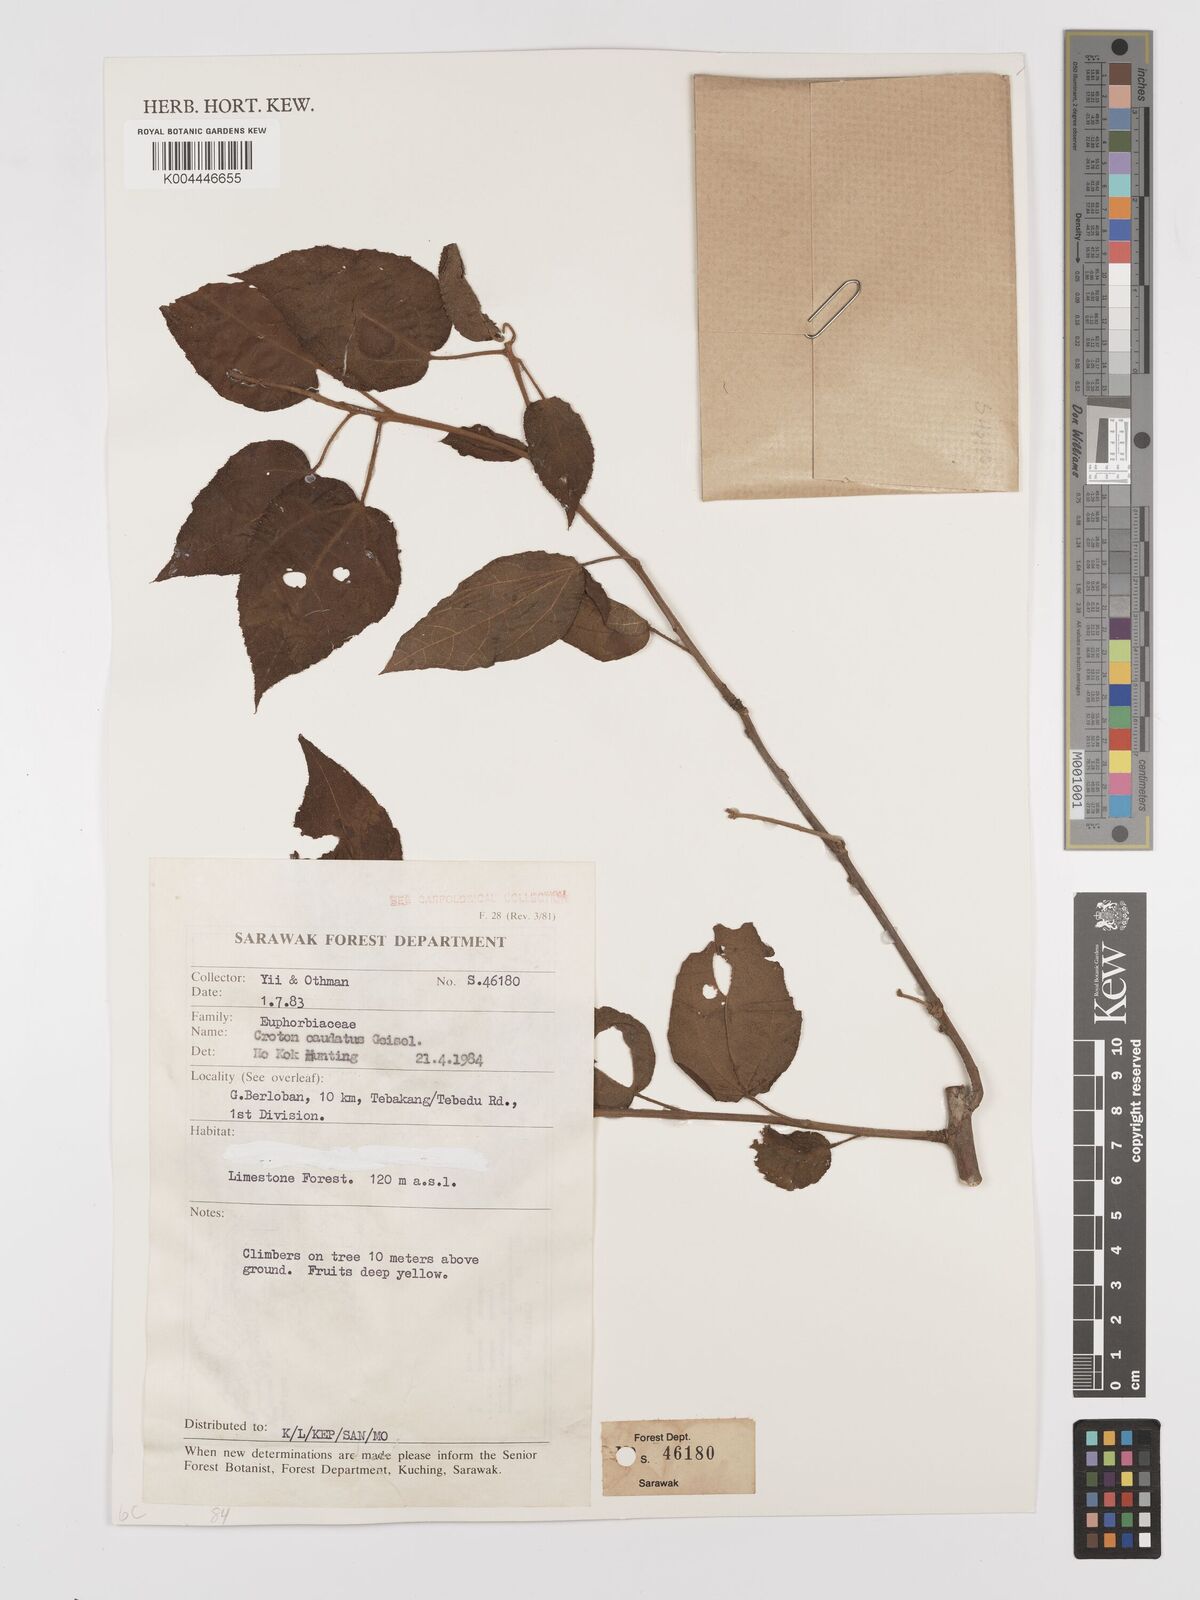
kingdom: Plantae
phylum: Tracheophyta
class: Magnoliopsida
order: Malpighiales
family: Euphorbiaceae
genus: Croton
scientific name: Croton caudatus
